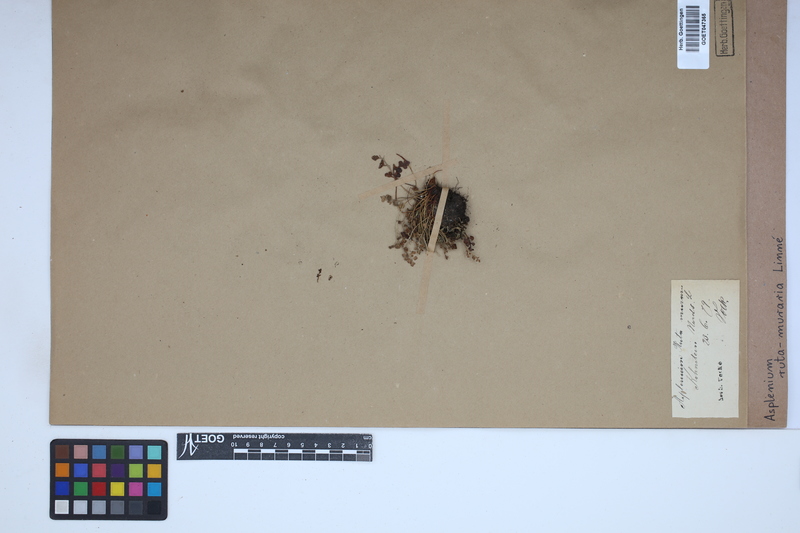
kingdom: Plantae
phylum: Tracheophyta
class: Polypodiopsida
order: Polypodiales
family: Aspleniaceae
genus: Asplenium
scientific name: Asplenium ruta-muraria
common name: Wall-rue
